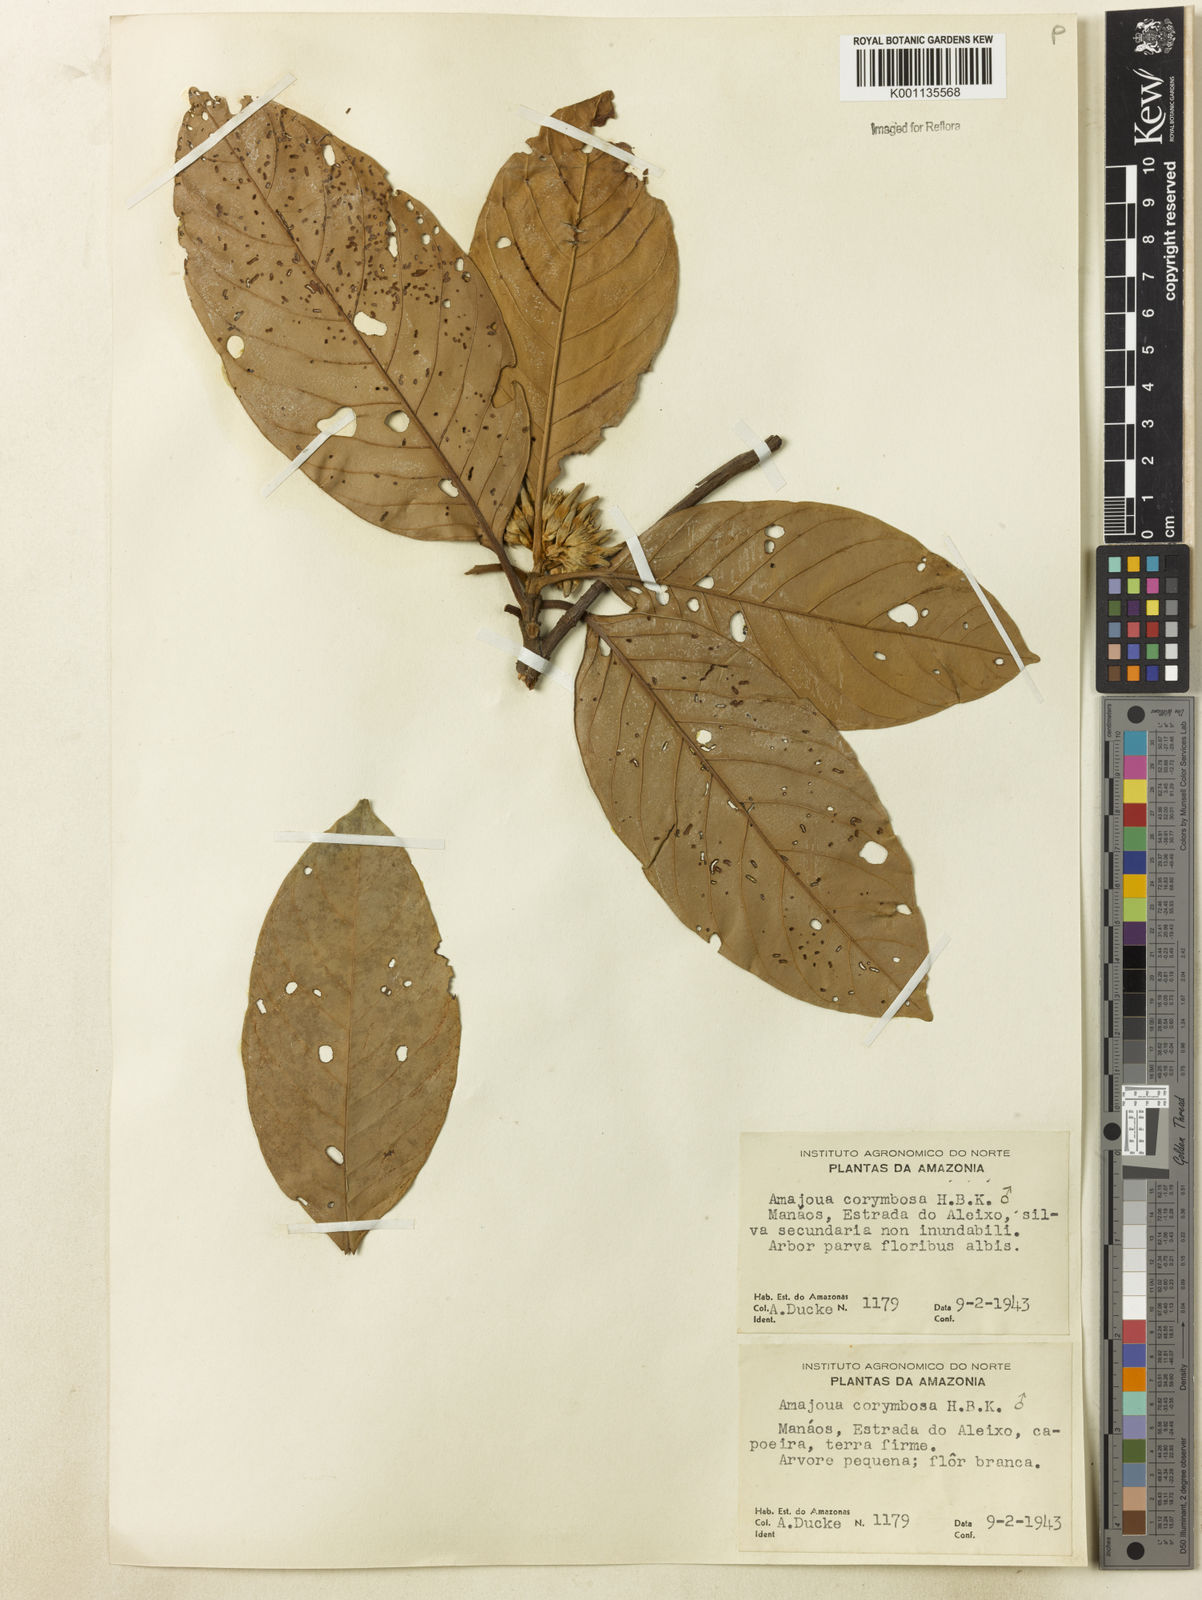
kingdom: Plantae
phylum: Tracheophyta
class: Magnoliopsida
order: Gentianales
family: Rubiaceae
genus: Amaioua
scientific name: Amaioua glomerulata
